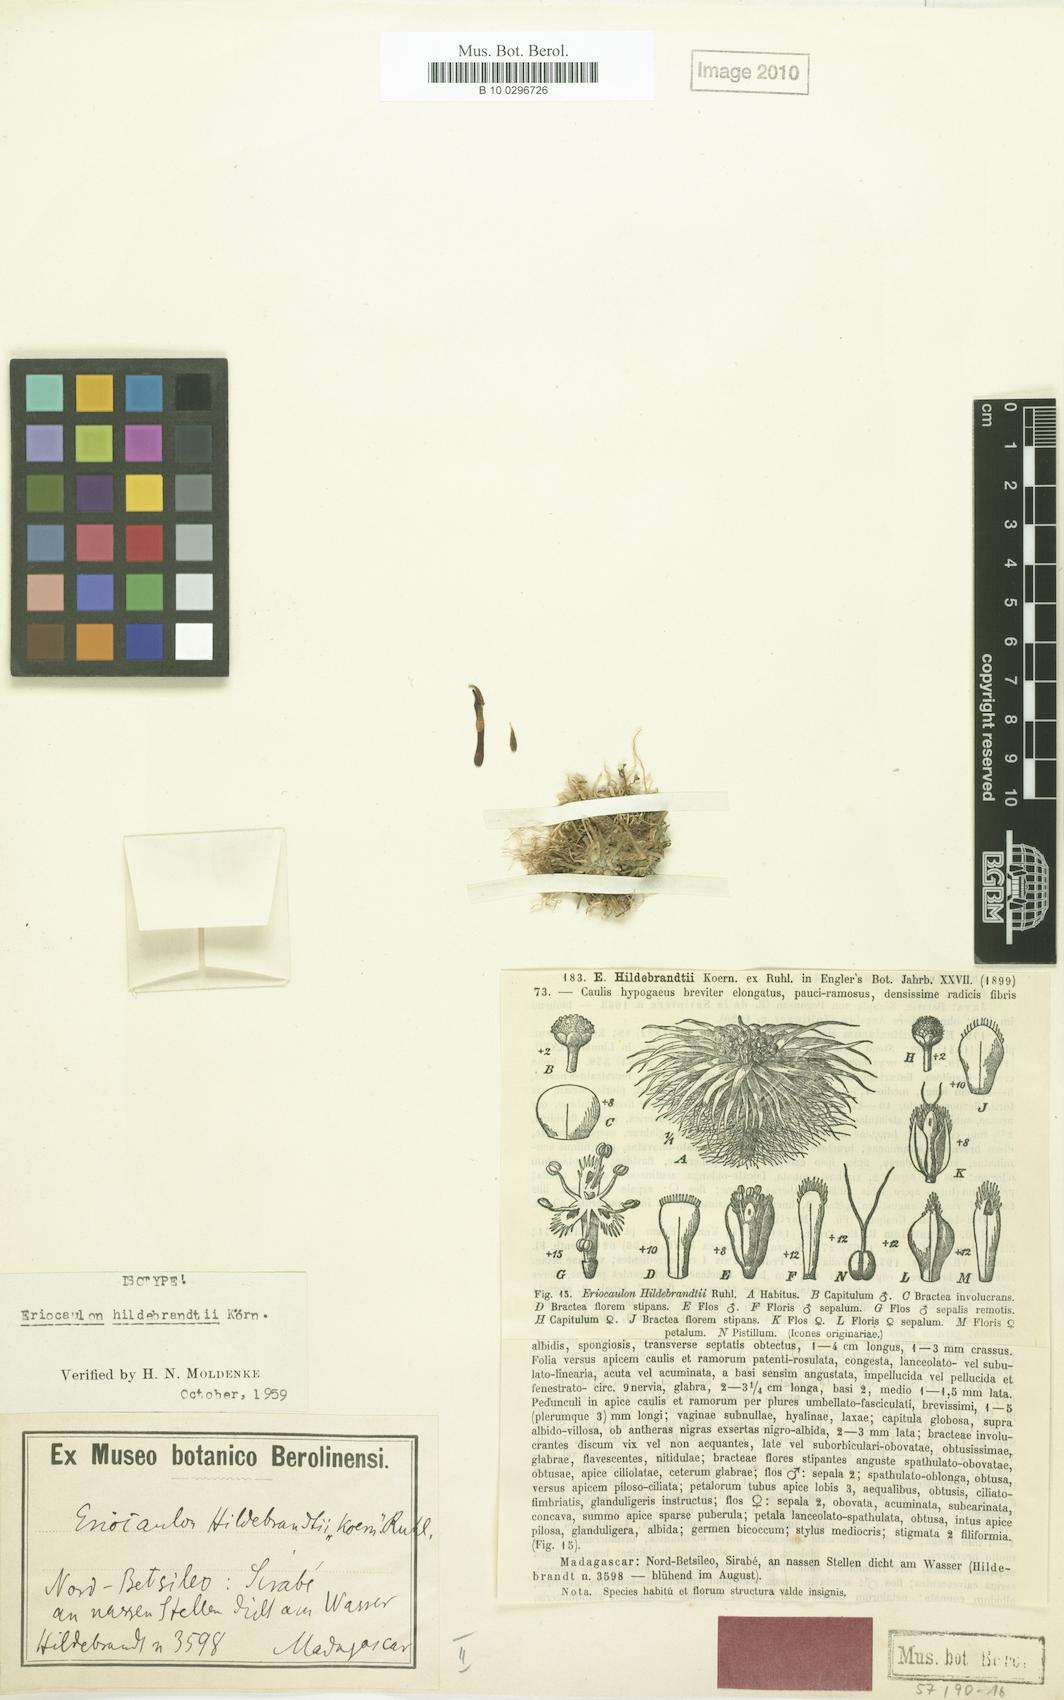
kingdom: Plantae
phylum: Tracheophyta
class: Liliopsida
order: Poales
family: Eriocaulaceae
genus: Eriocaulon
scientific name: Eriocaulon hildebrandtii
